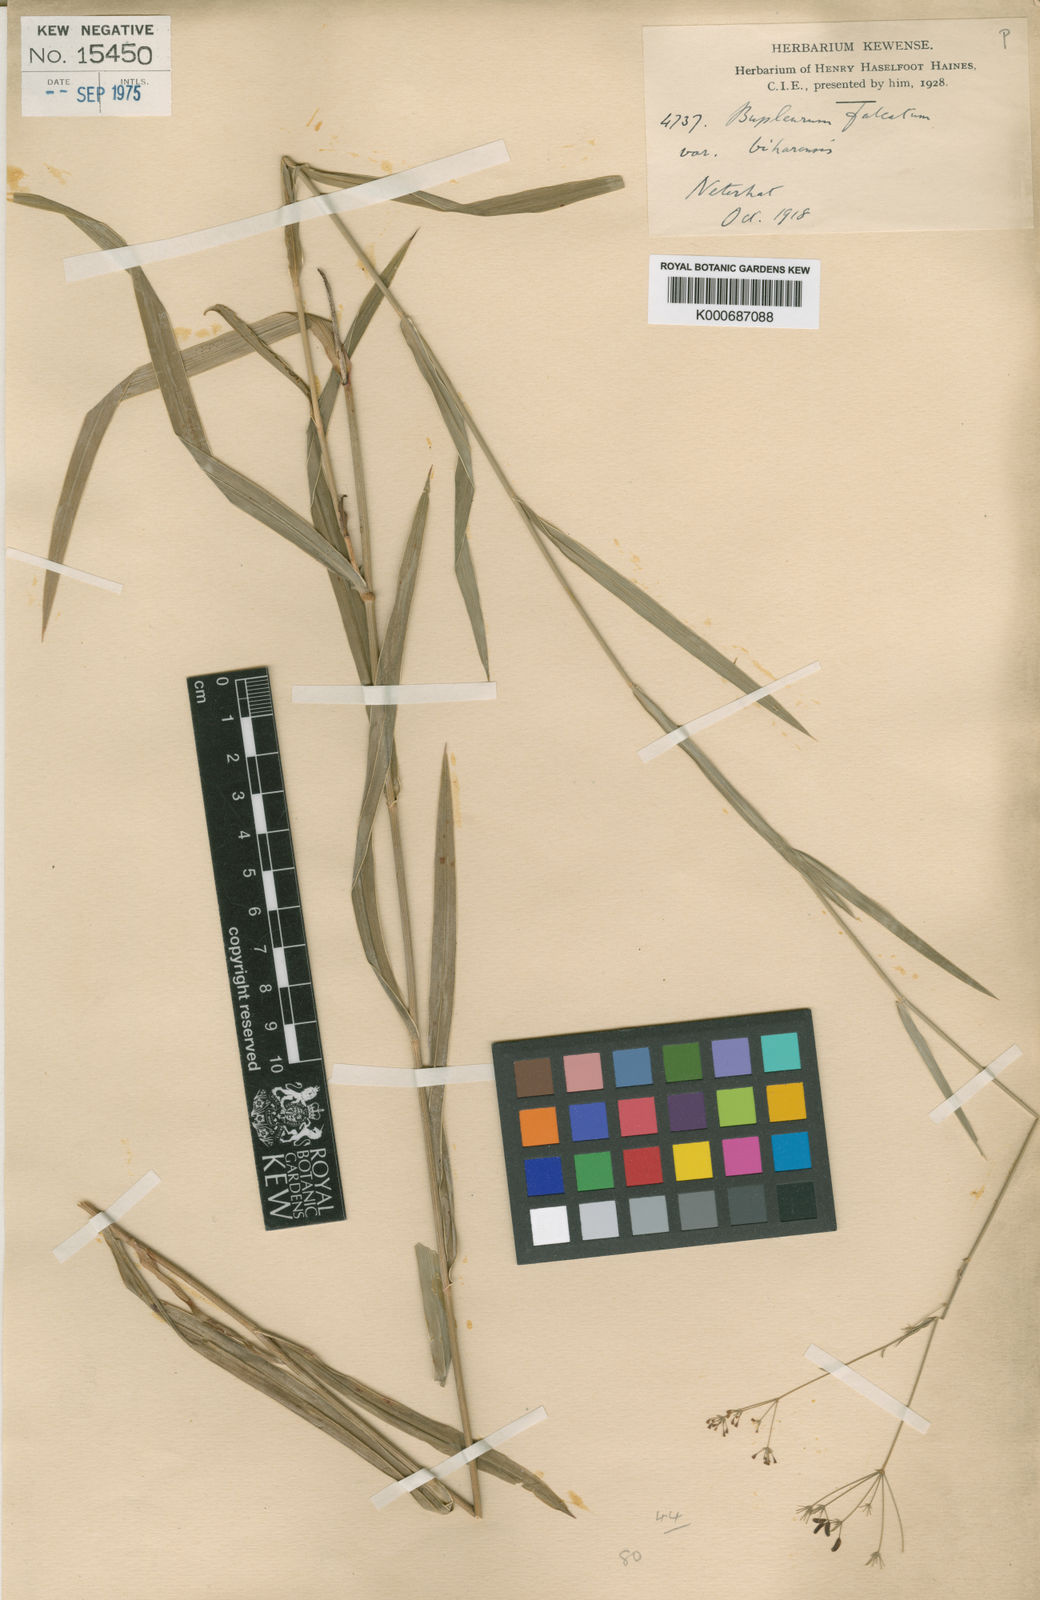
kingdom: Plantae
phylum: Tracheophyta
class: Magnoliopsida
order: Apiales
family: Apiaceae
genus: Bupleurum
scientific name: Bupleurum falcatum
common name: Sickle-leaved hare's-ear
